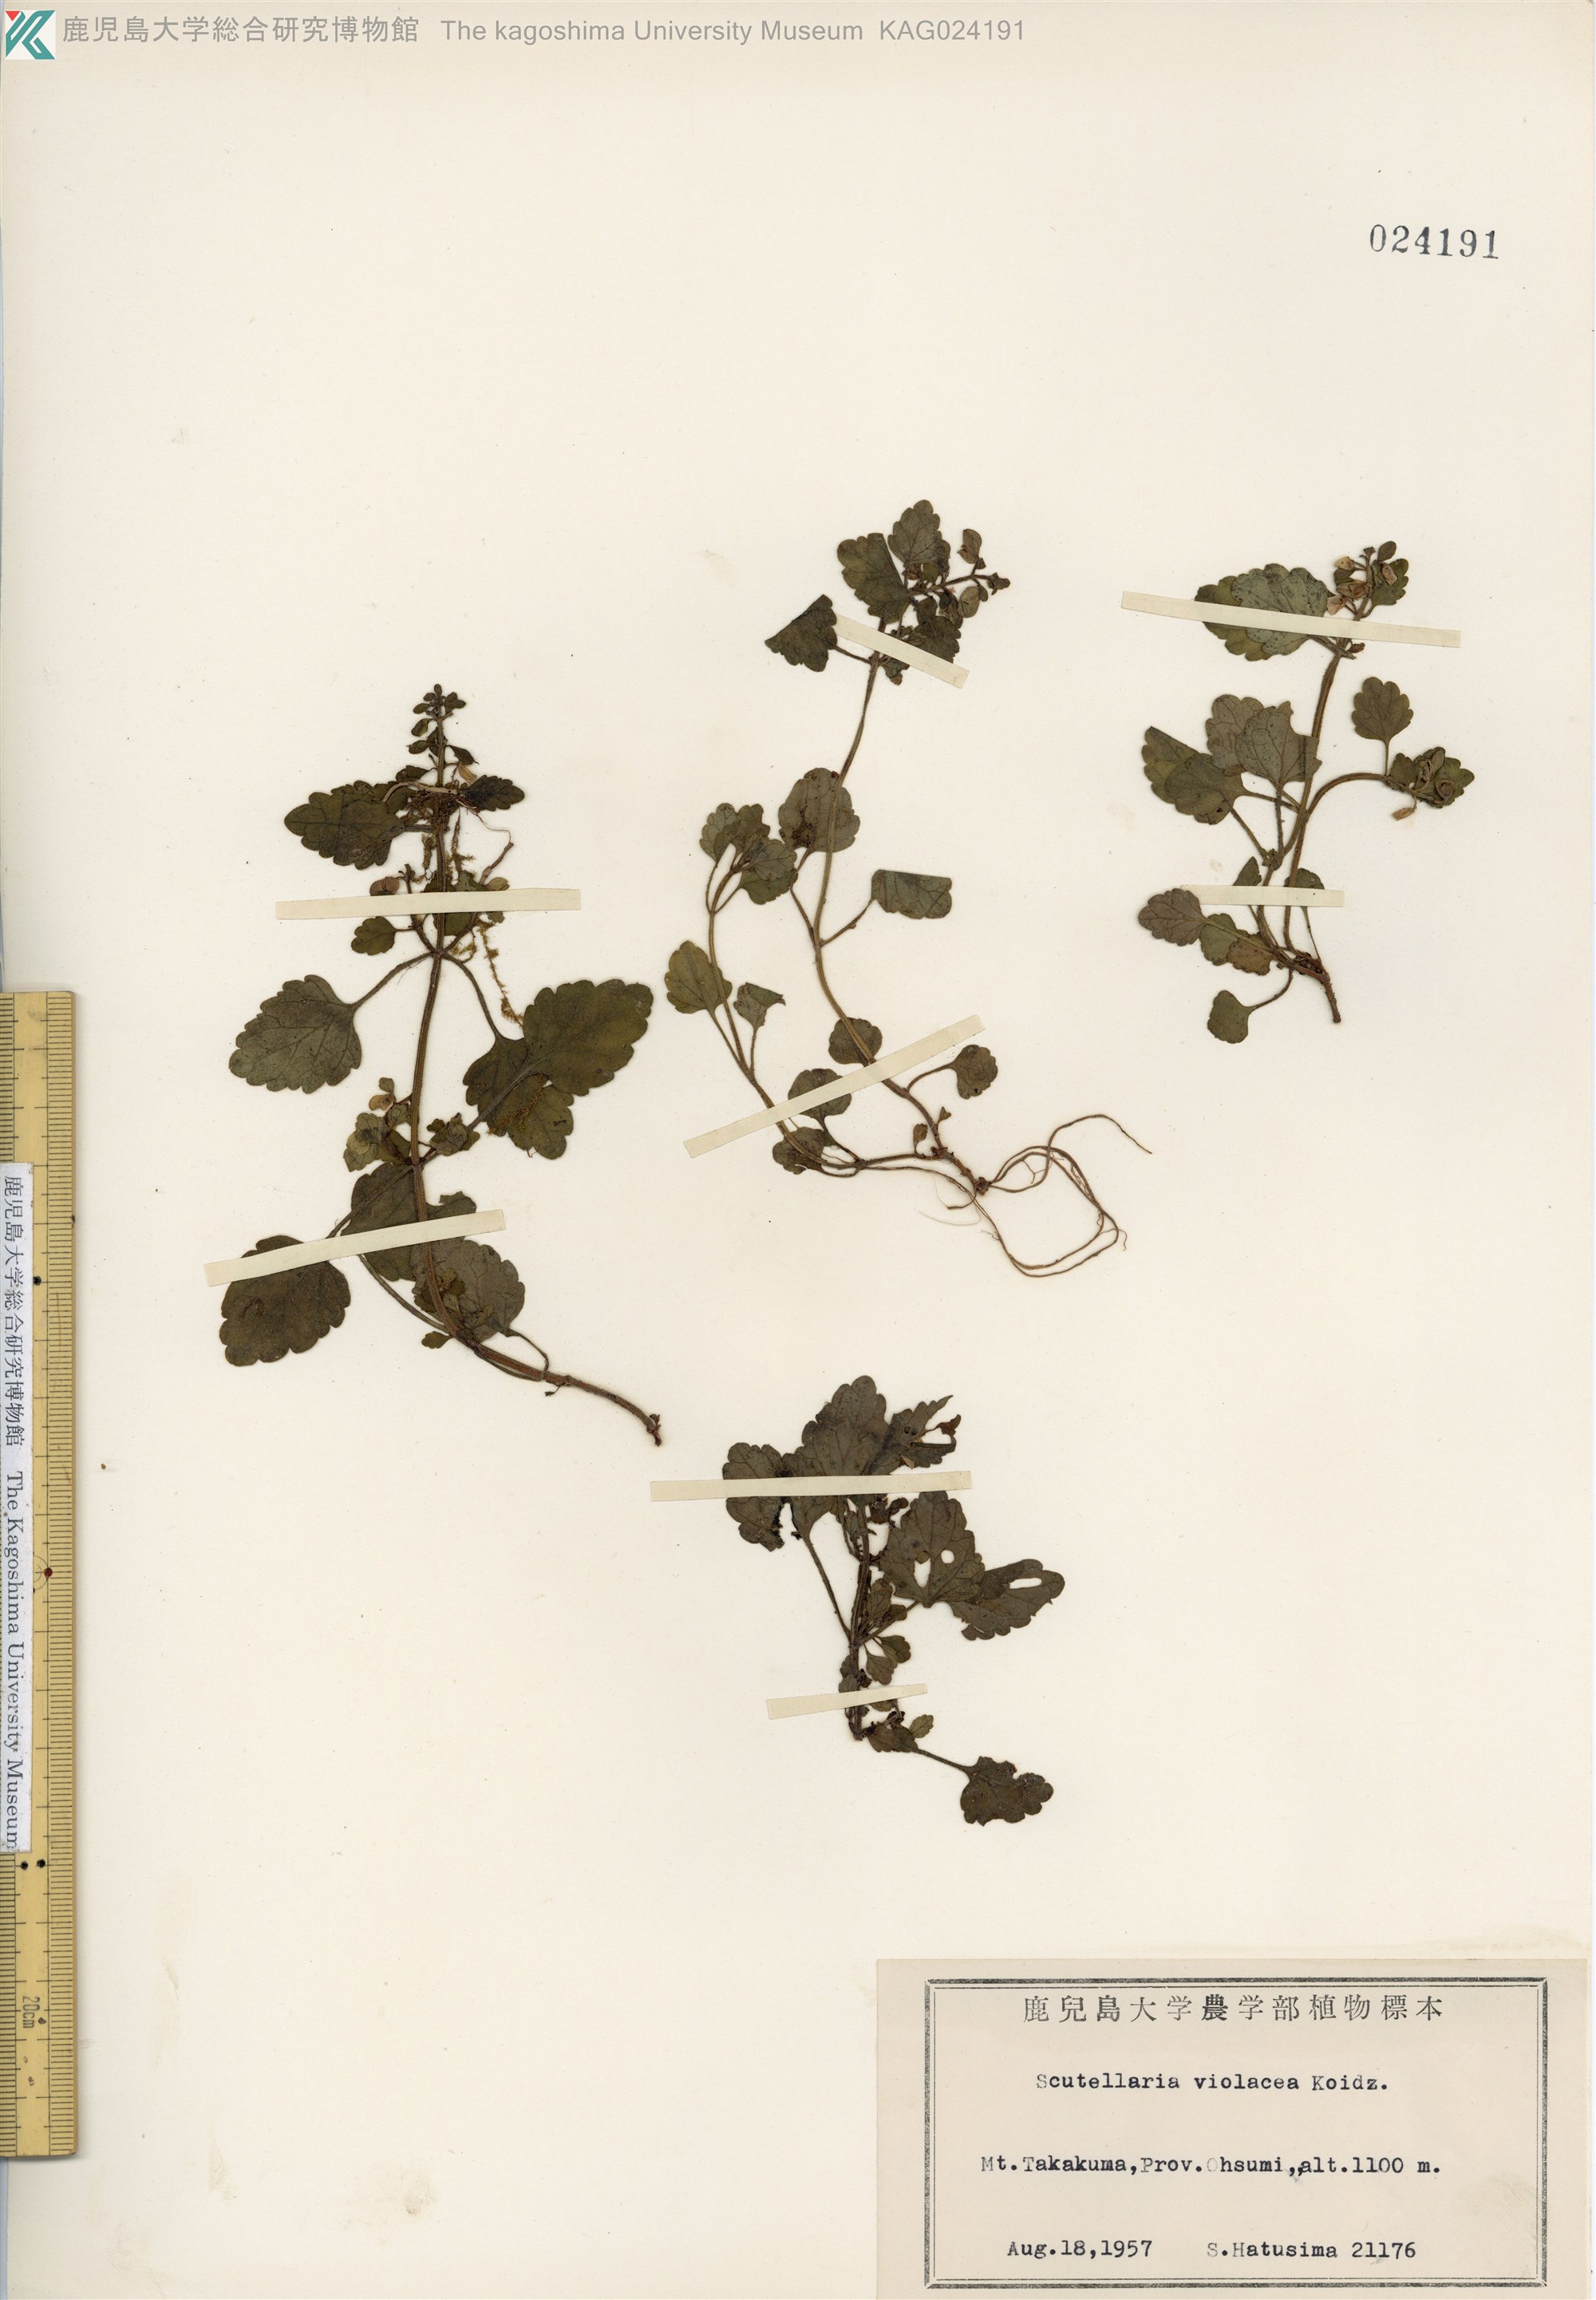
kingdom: Plantae
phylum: Tracheophyta
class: Magnoliopsida
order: Lamiales
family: Lamiaceae
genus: Scutellaria
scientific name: Scutellaria laeteviolacea
